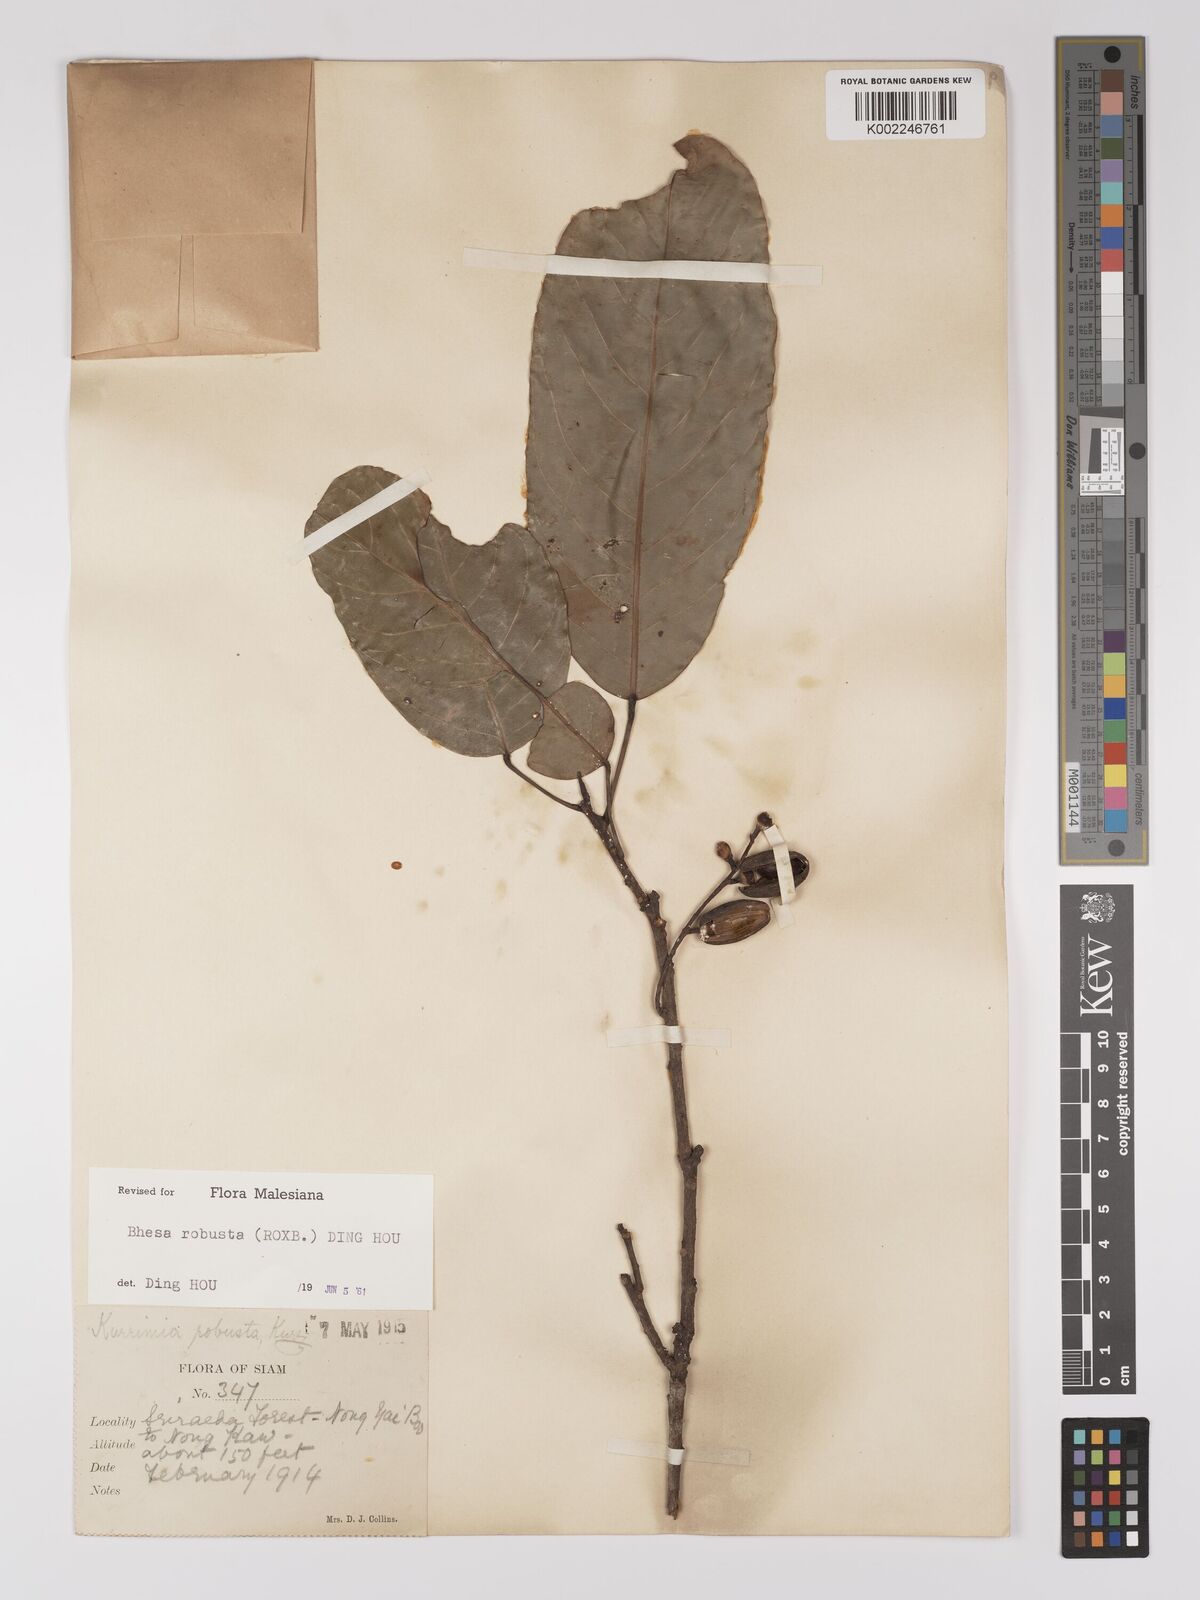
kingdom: Plantae
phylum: Tracheophyta
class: Magnoliopsida
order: Malpighiales
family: Centroplacaceae
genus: Bhesa
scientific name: Bhesa robusta
